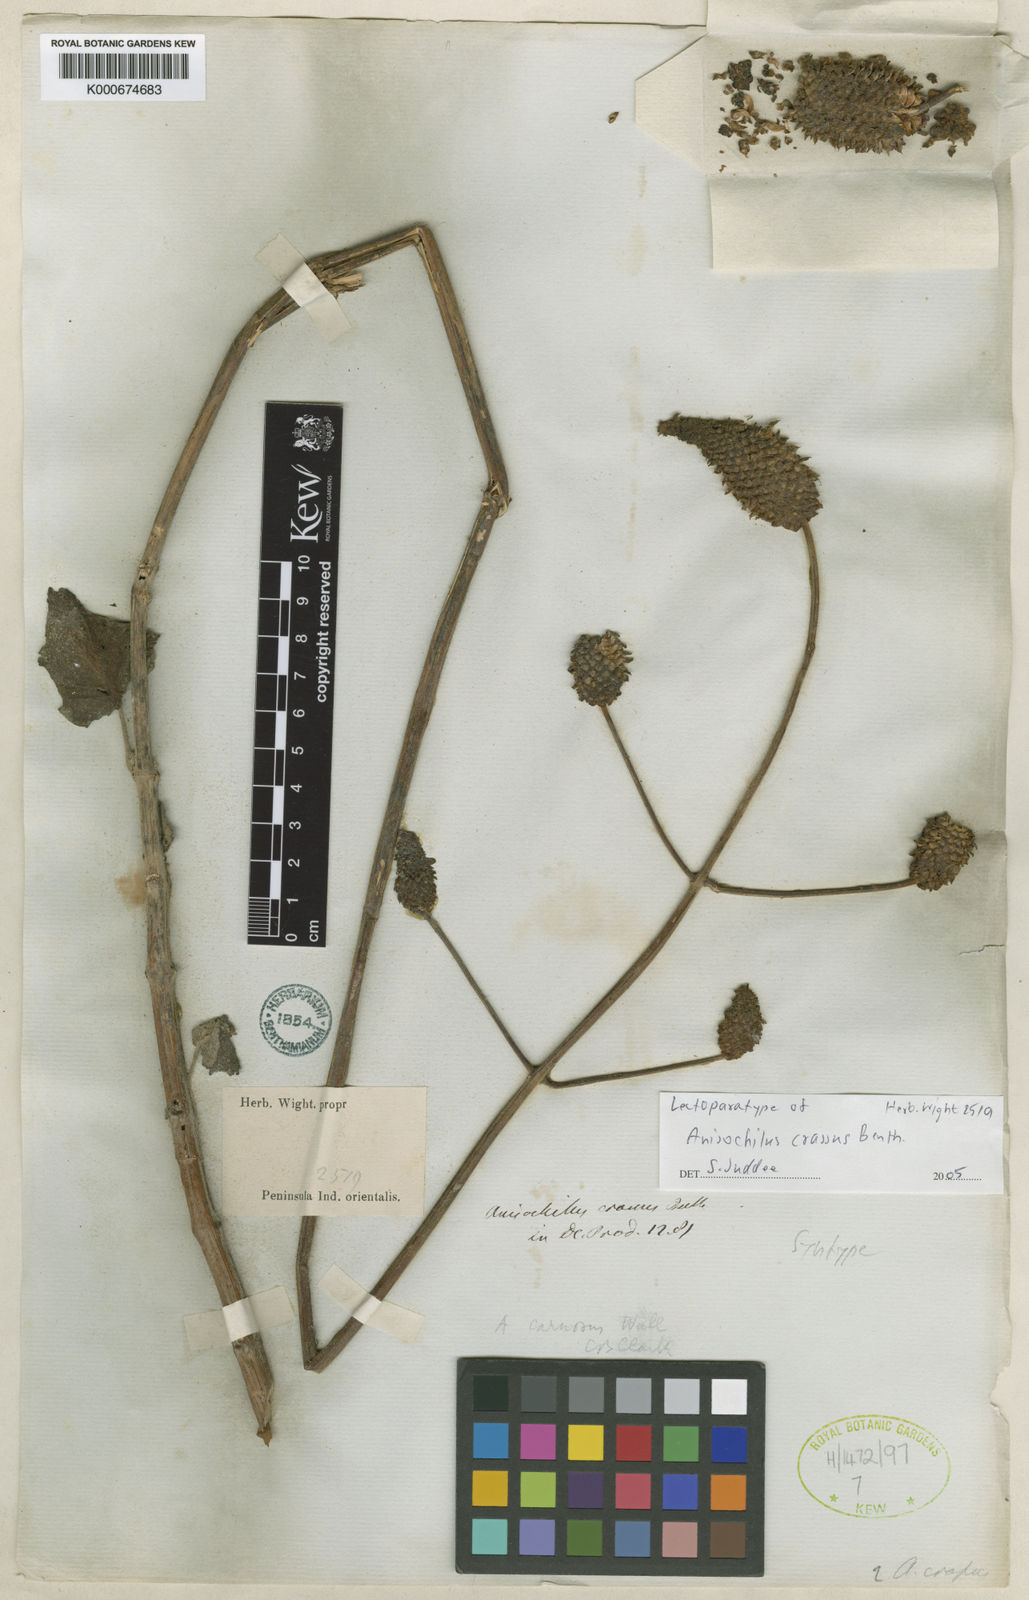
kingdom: Plantae
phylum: Tracheophyta
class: Magnoliopsida
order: Lamiales
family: Lamiaceae
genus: Coleus
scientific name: Coleus strobilifer
